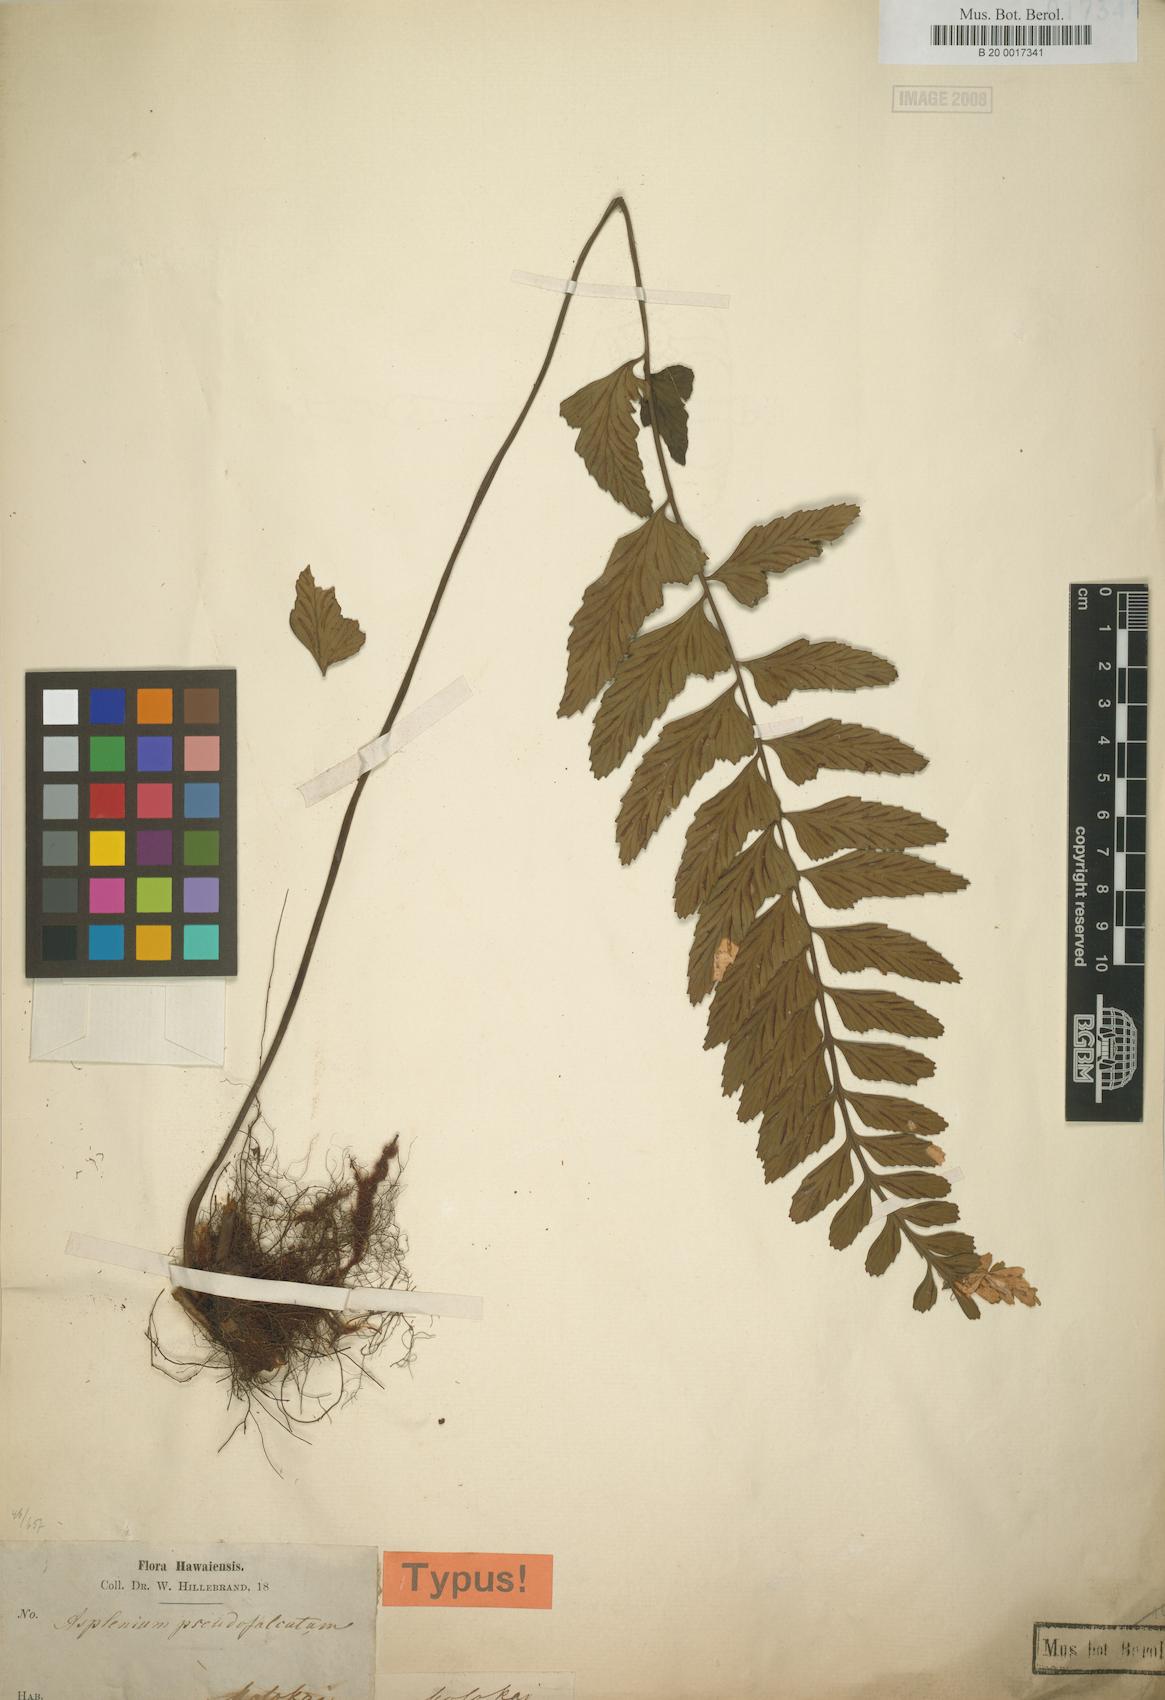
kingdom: Plantae
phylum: Tracheophyta
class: Polypodiopsida
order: Polypodiales
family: Aspleniaceae
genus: Asplenium
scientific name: Asplenium lobulatum
